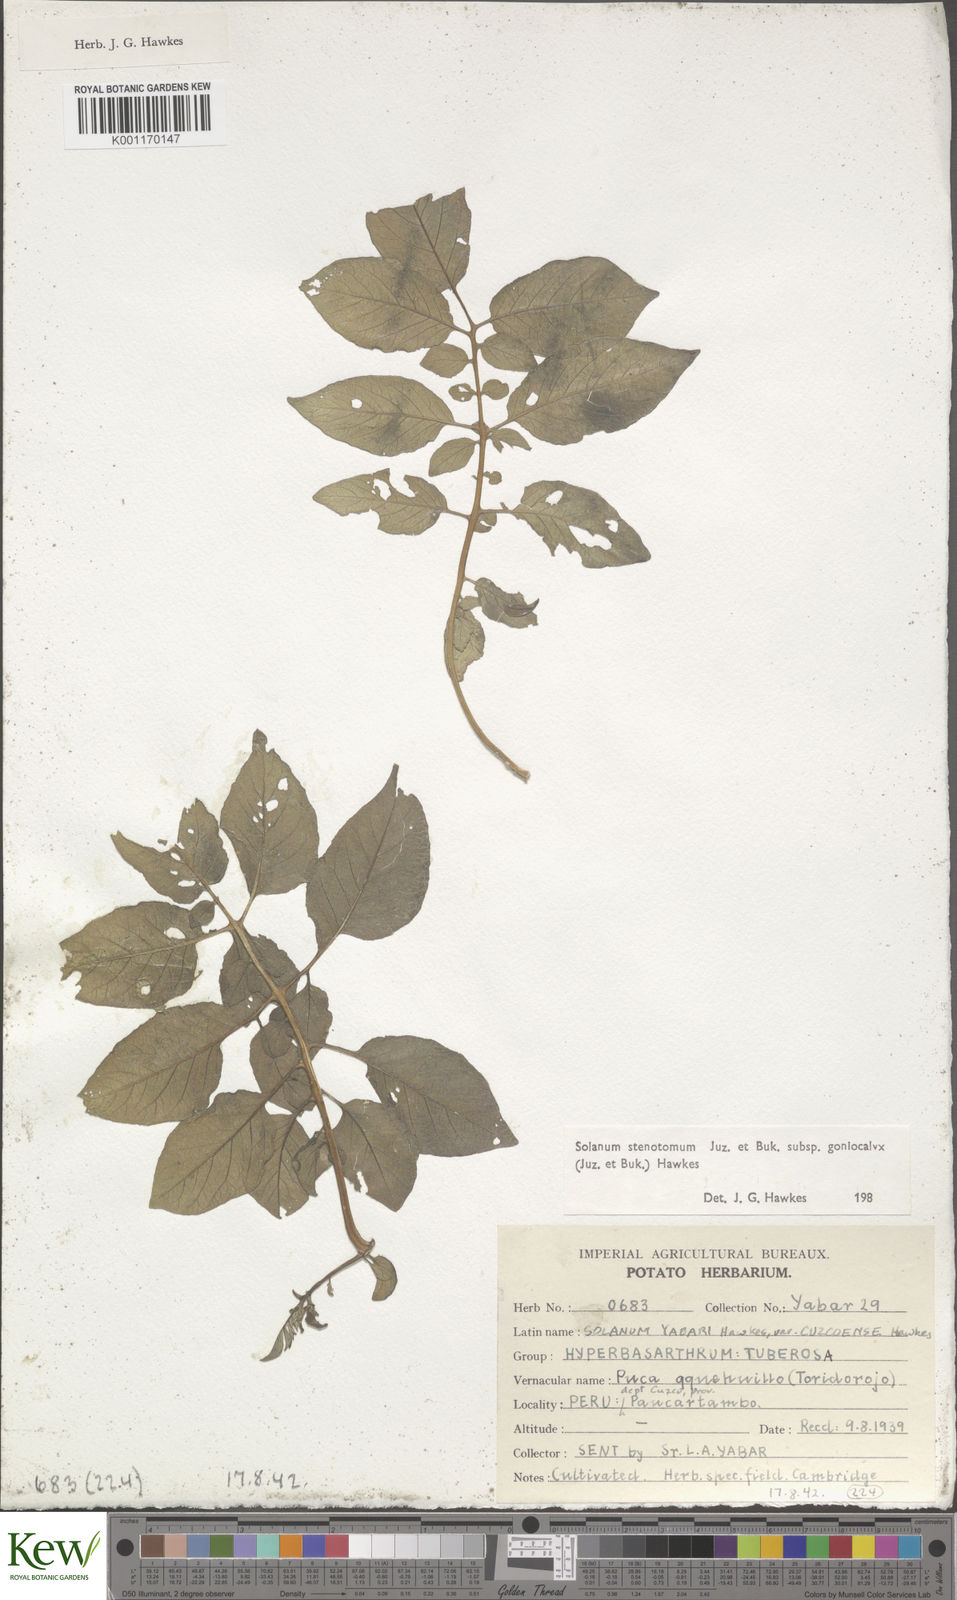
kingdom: Plantae
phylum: Tracheophyta
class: Magnoliopsida
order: Solanales
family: Solanaceae
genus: Solanum
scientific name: Solanum tuberosum
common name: Potato
